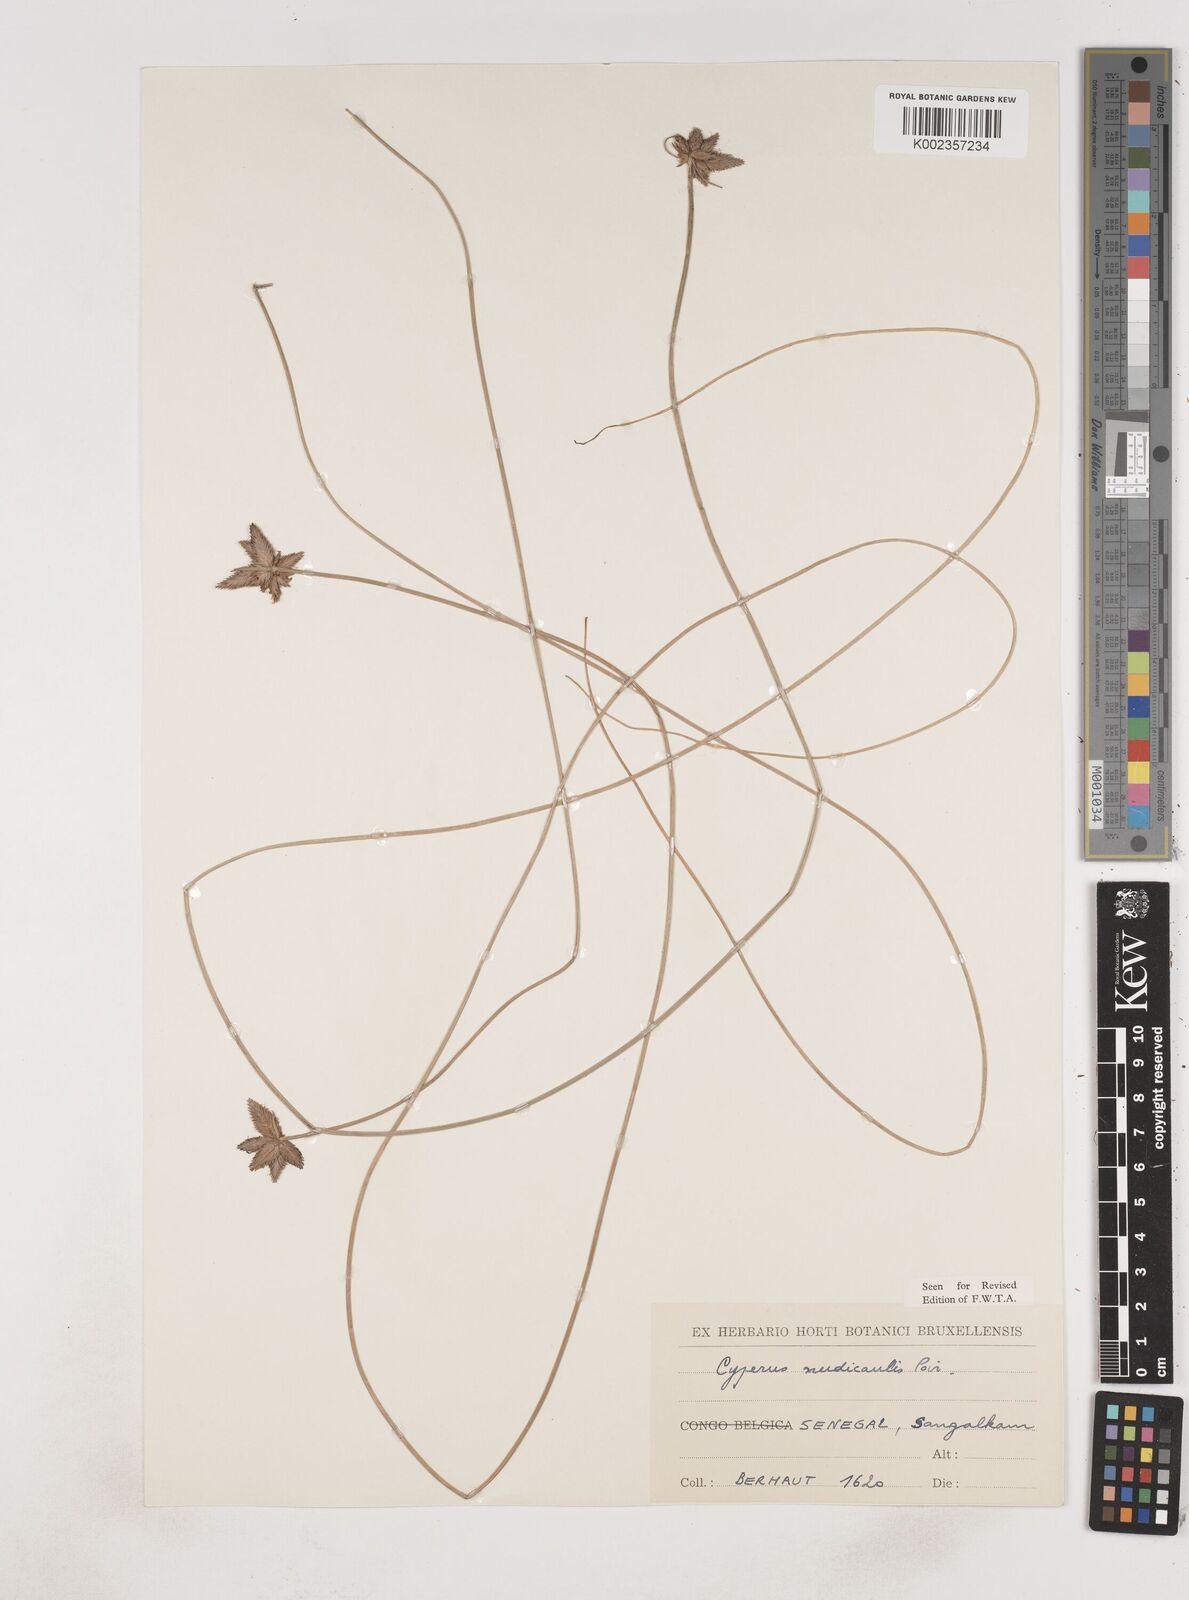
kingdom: Plantae
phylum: Tracheophyta
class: Liliopsida
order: Poales
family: Cyperaceae
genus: Cyperus
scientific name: Cyperus pectinatus
